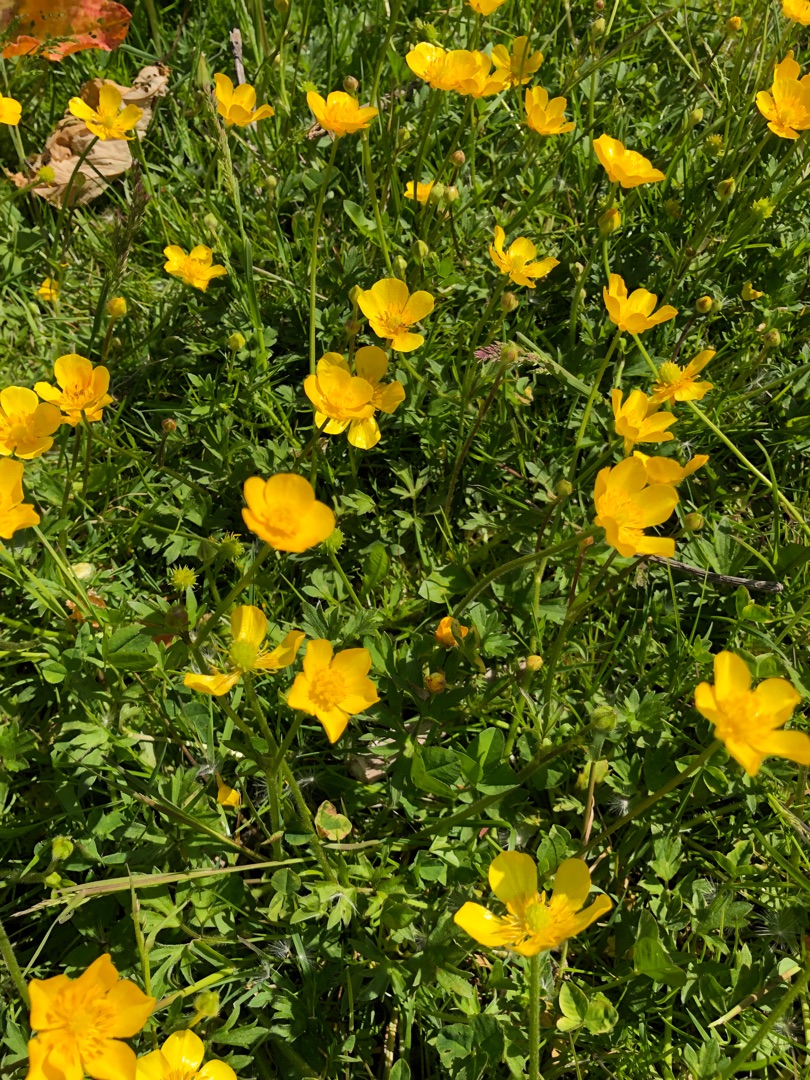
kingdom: Plantae
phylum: Tracheophyta
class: Magnoliopsida
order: Ranunculales
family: Ranunculaceae
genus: Ranunculus
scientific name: Ranunculus repens
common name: Lav ranunkel
